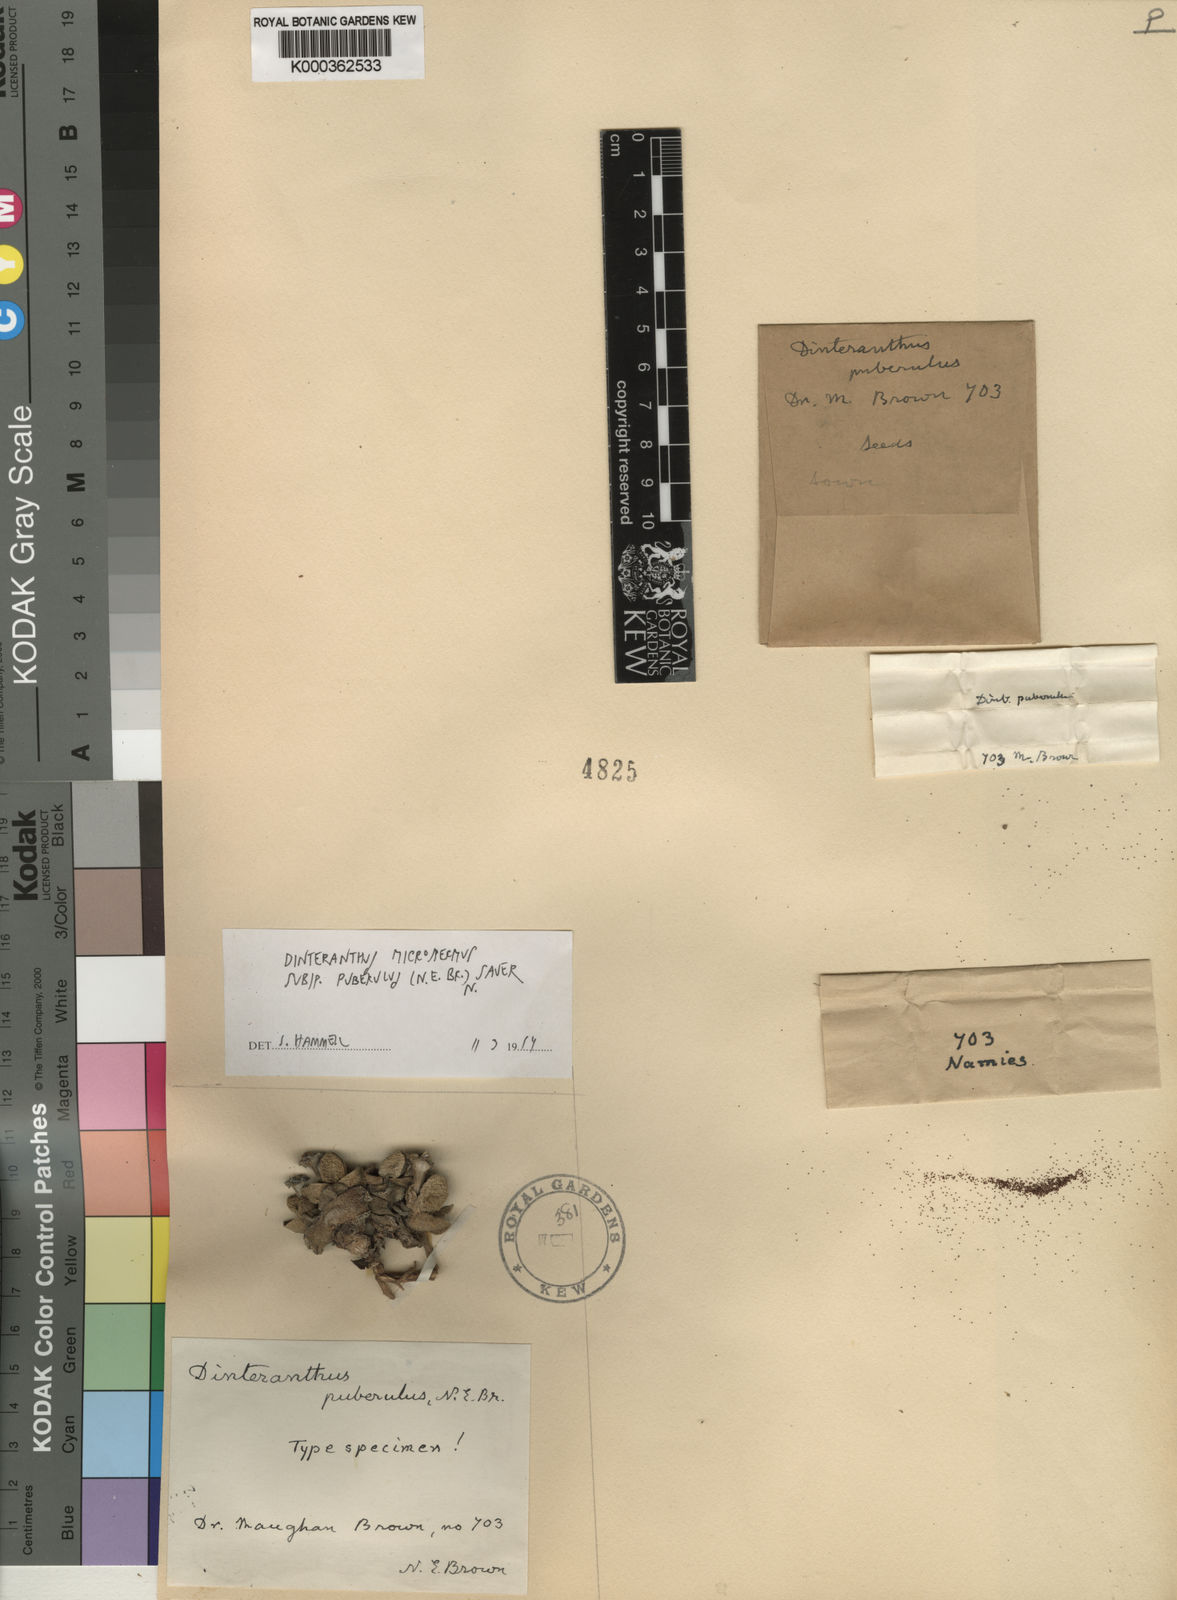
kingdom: Plantae
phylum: Tracheophyta
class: Magnoliopsida
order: Caryophyllales
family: Aizoaceae
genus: Dinteranthus
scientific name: Dinteranthus microspermus
